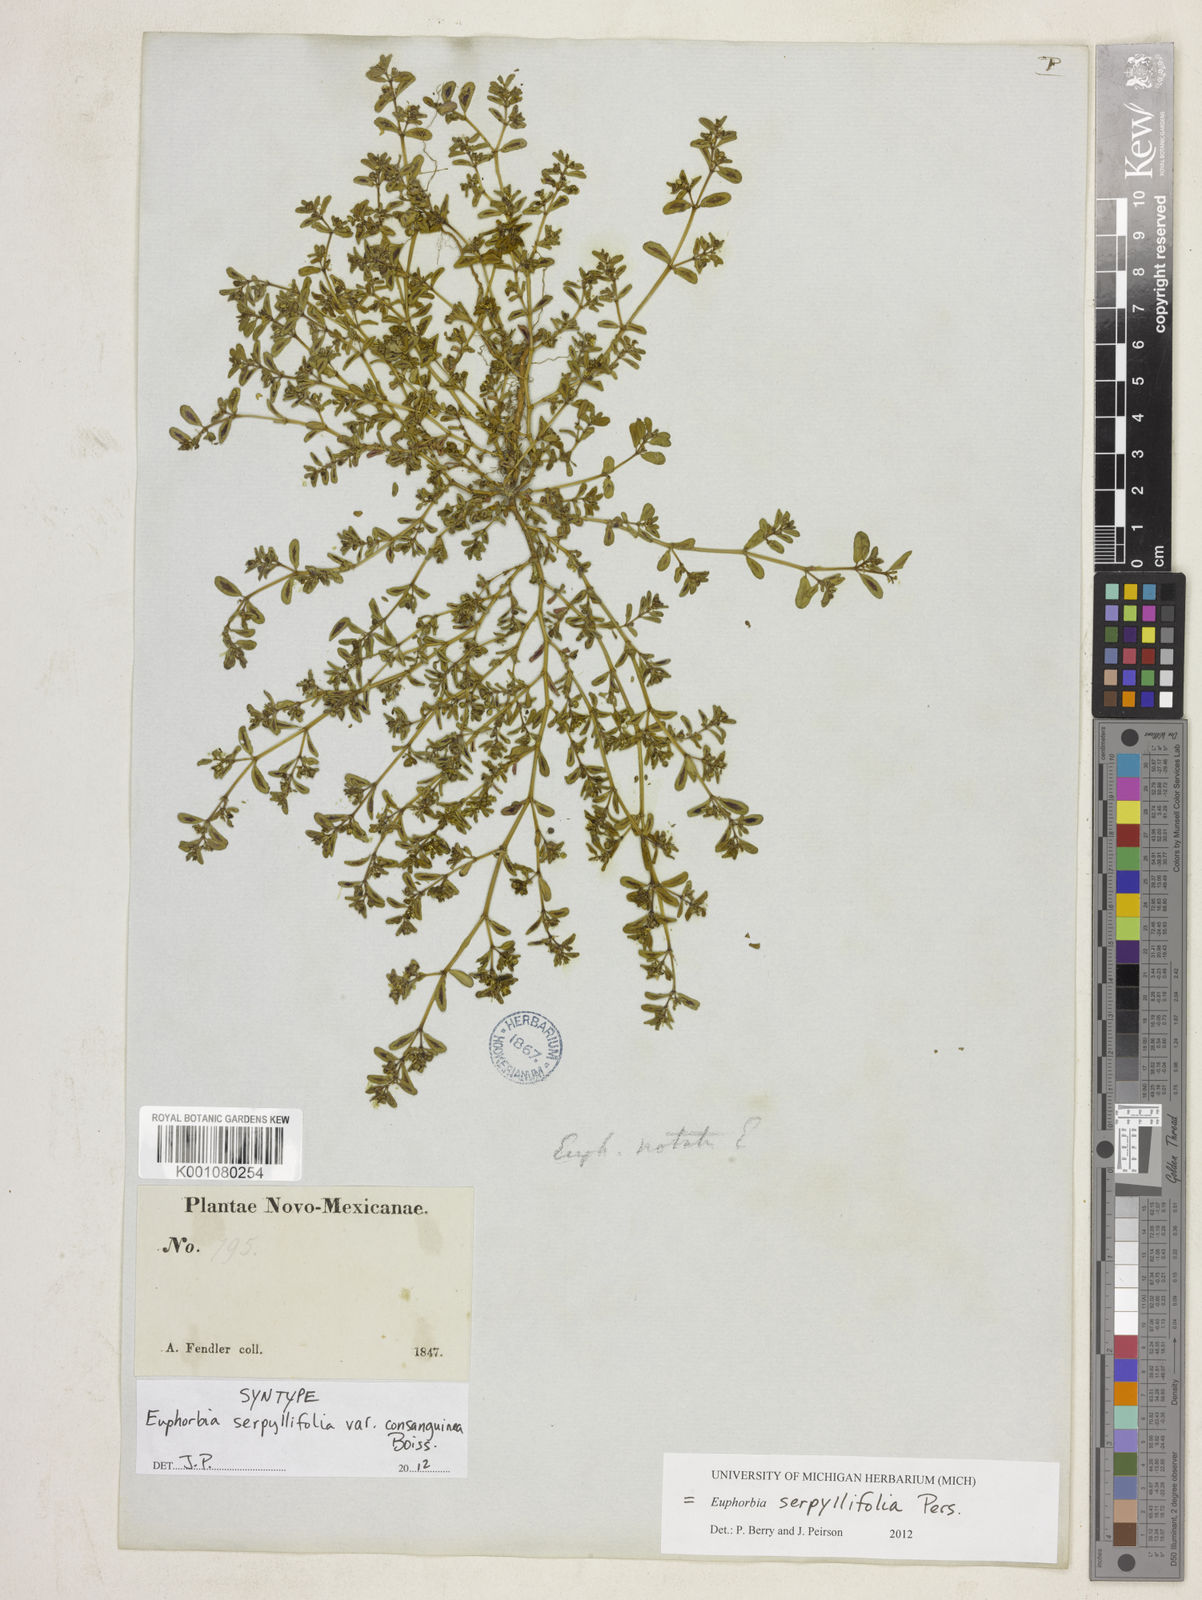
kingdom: Plantae
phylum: Tracheophyta
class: Magnoliopsida
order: Malpighiales
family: Euphorbiaceae
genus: Euphorbia
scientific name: Euphorbia serpillifolia
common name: Thyme-leaf spurge
